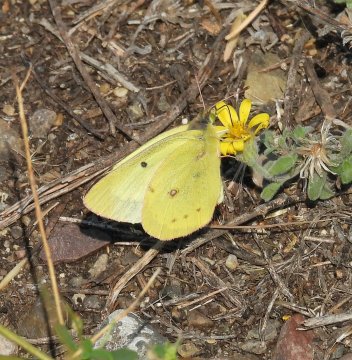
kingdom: Animalia
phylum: Arthropoda
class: Insecta
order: Lepidoptera
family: Pieridae
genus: Colias
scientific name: Colias philodice
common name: Clouded Sulphur
